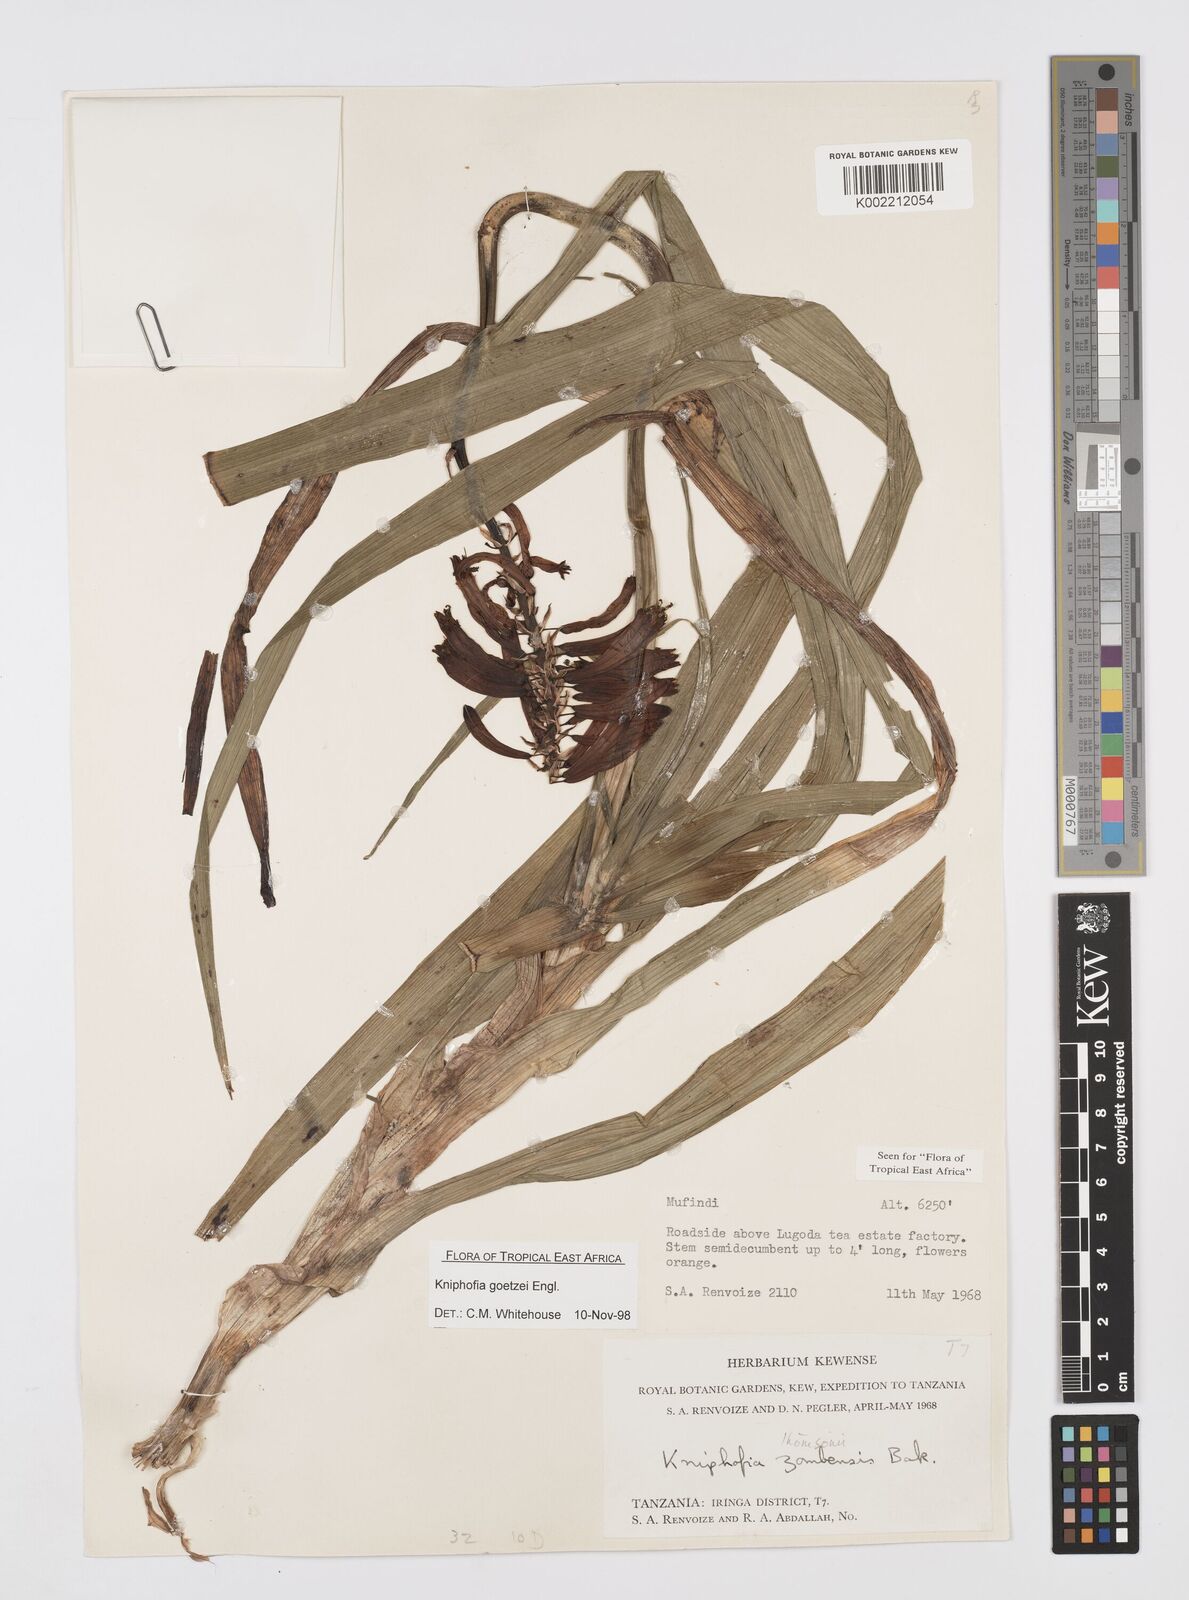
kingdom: Plantae
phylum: Tracheophyta
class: Liliopsida
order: Asparagales
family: Asphodelaceae
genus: Kniphofia
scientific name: Kniphofia goetzei
